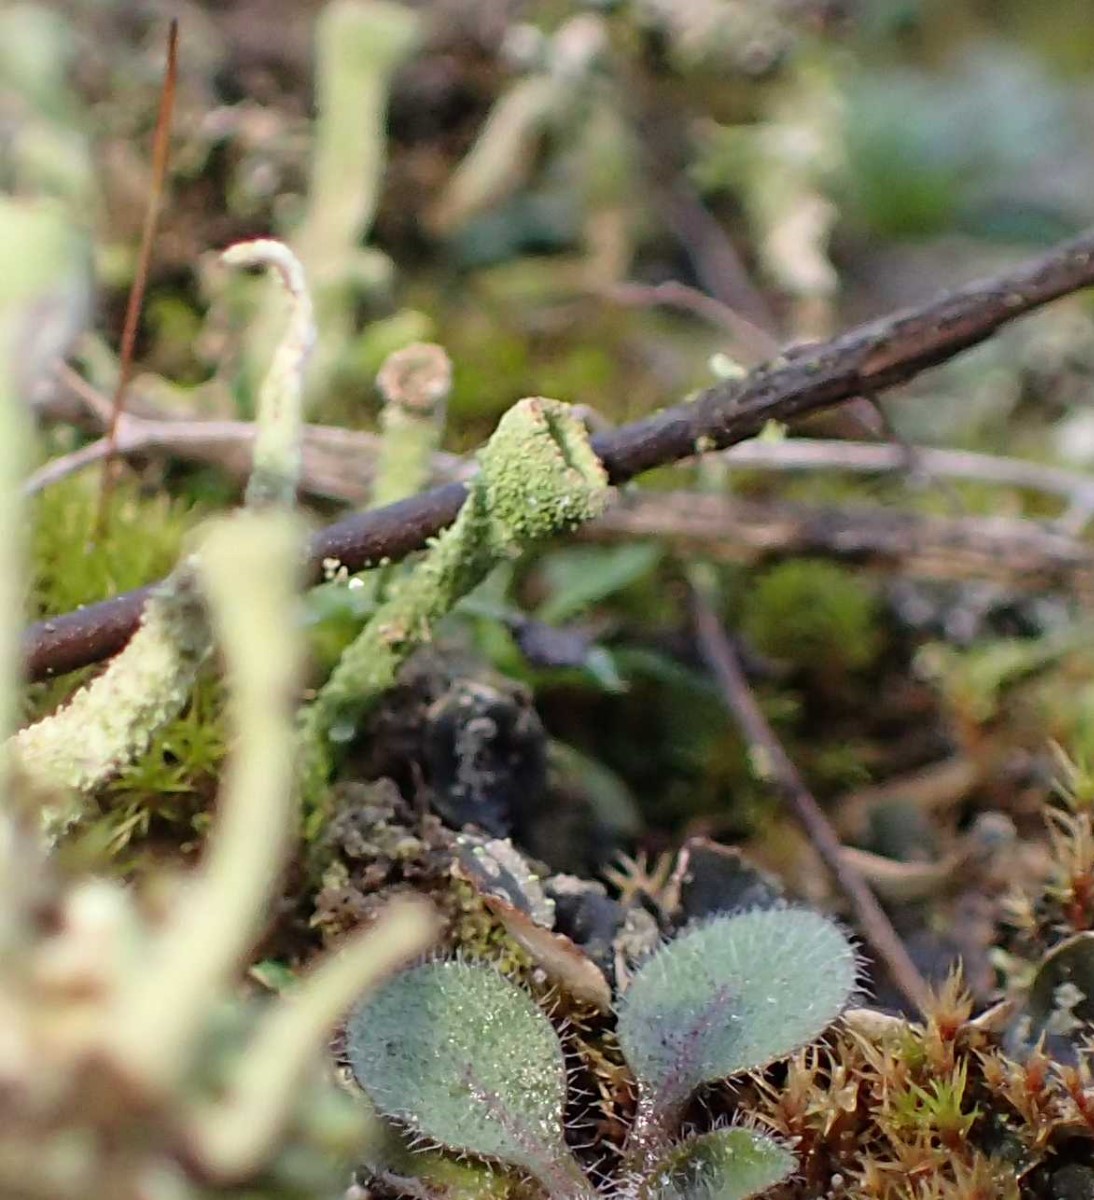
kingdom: Fungi
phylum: Ascomycota
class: Lecanoromycetes
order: Lecanorales
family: Cladoniaceae
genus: Cladonia
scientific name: Cladonia
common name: brungrøn bægerlav
